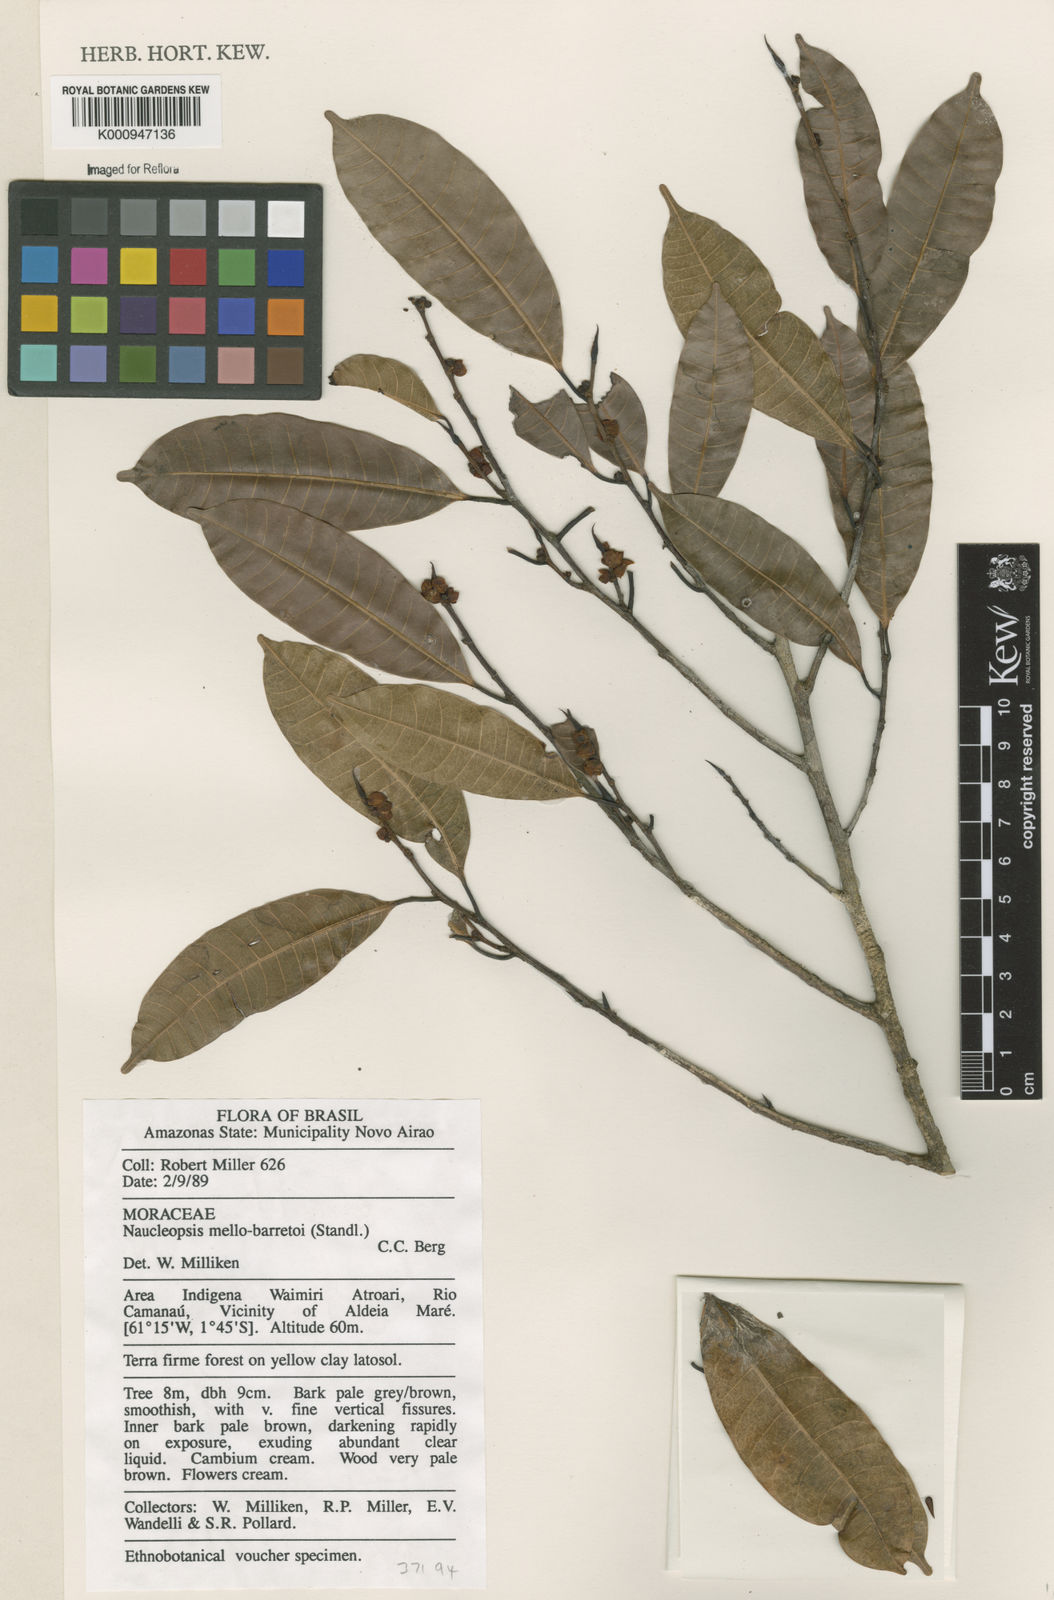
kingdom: Plantae
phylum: Tracheophyta
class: Magnoliopsida
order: Rosales
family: Moraceae
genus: Naucleopsis
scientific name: Naucleopsis oblongifolia
